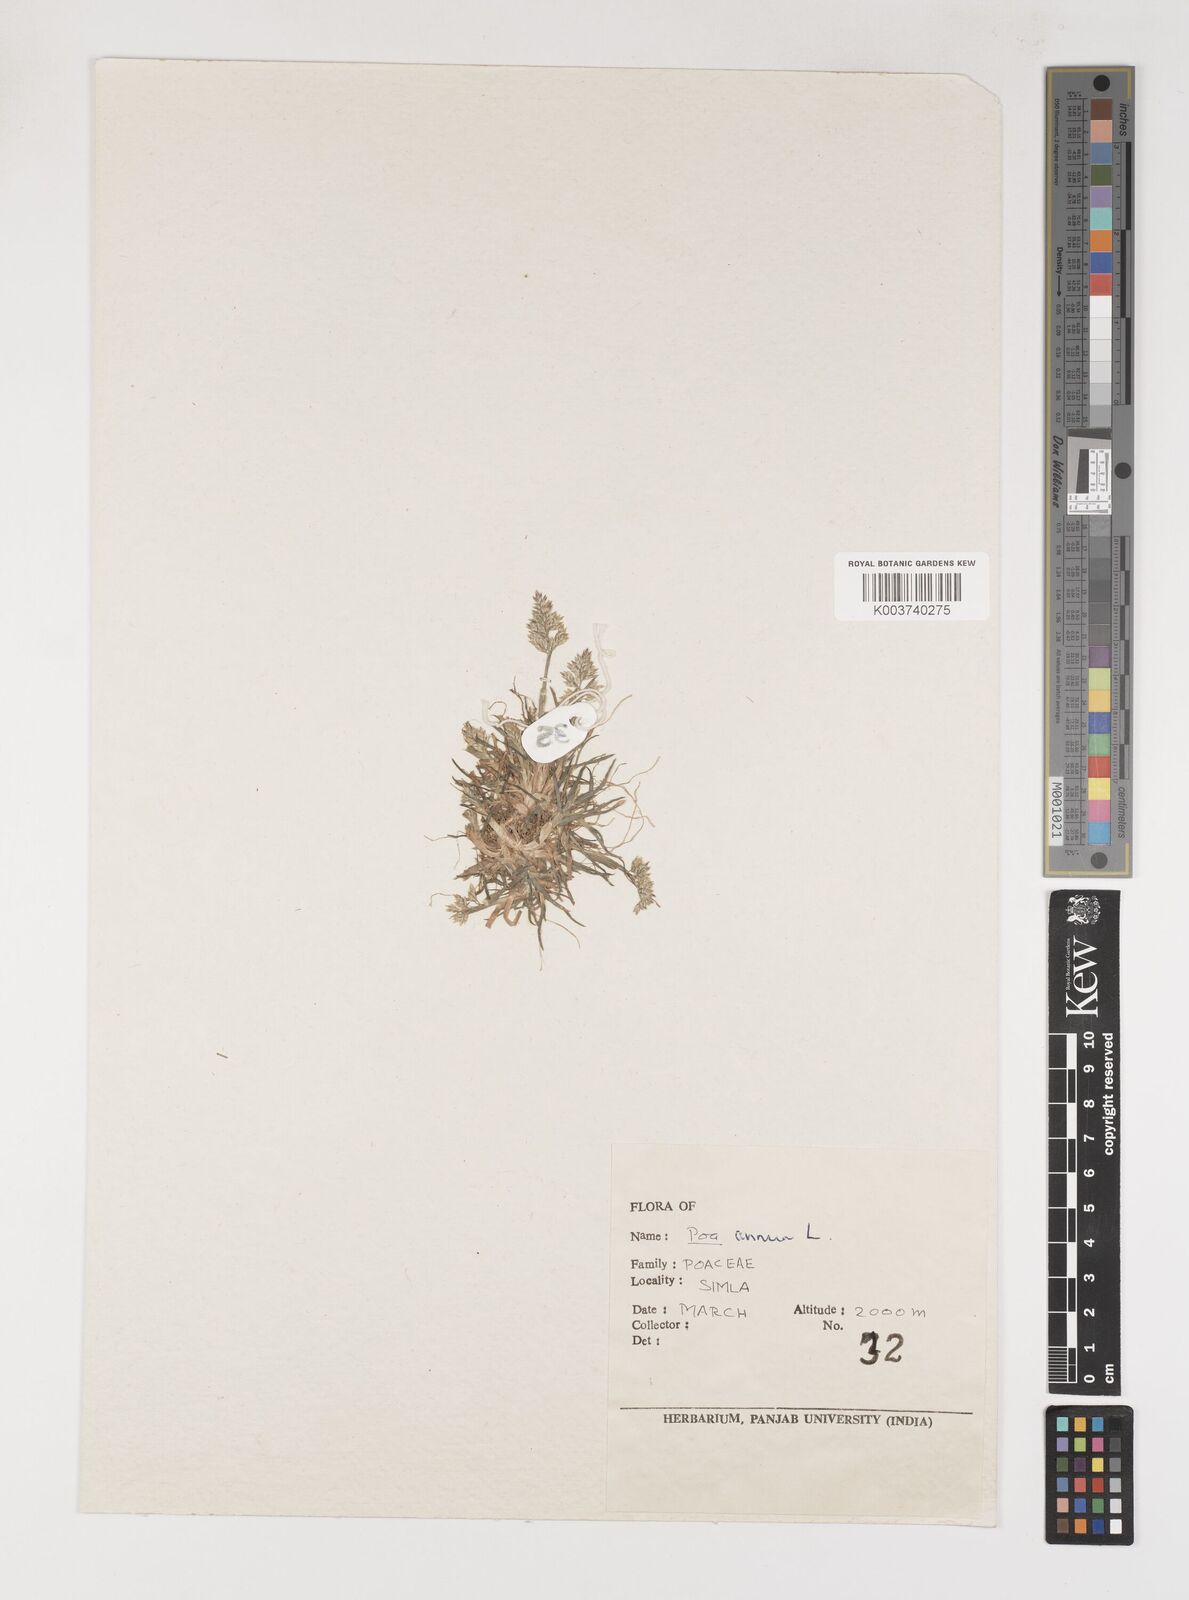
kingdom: Plantae
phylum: Tracheophyta
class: Liliopsida
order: Poales
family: Poaceae
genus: Poa
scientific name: Poa annua
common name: Annual bluegrass
